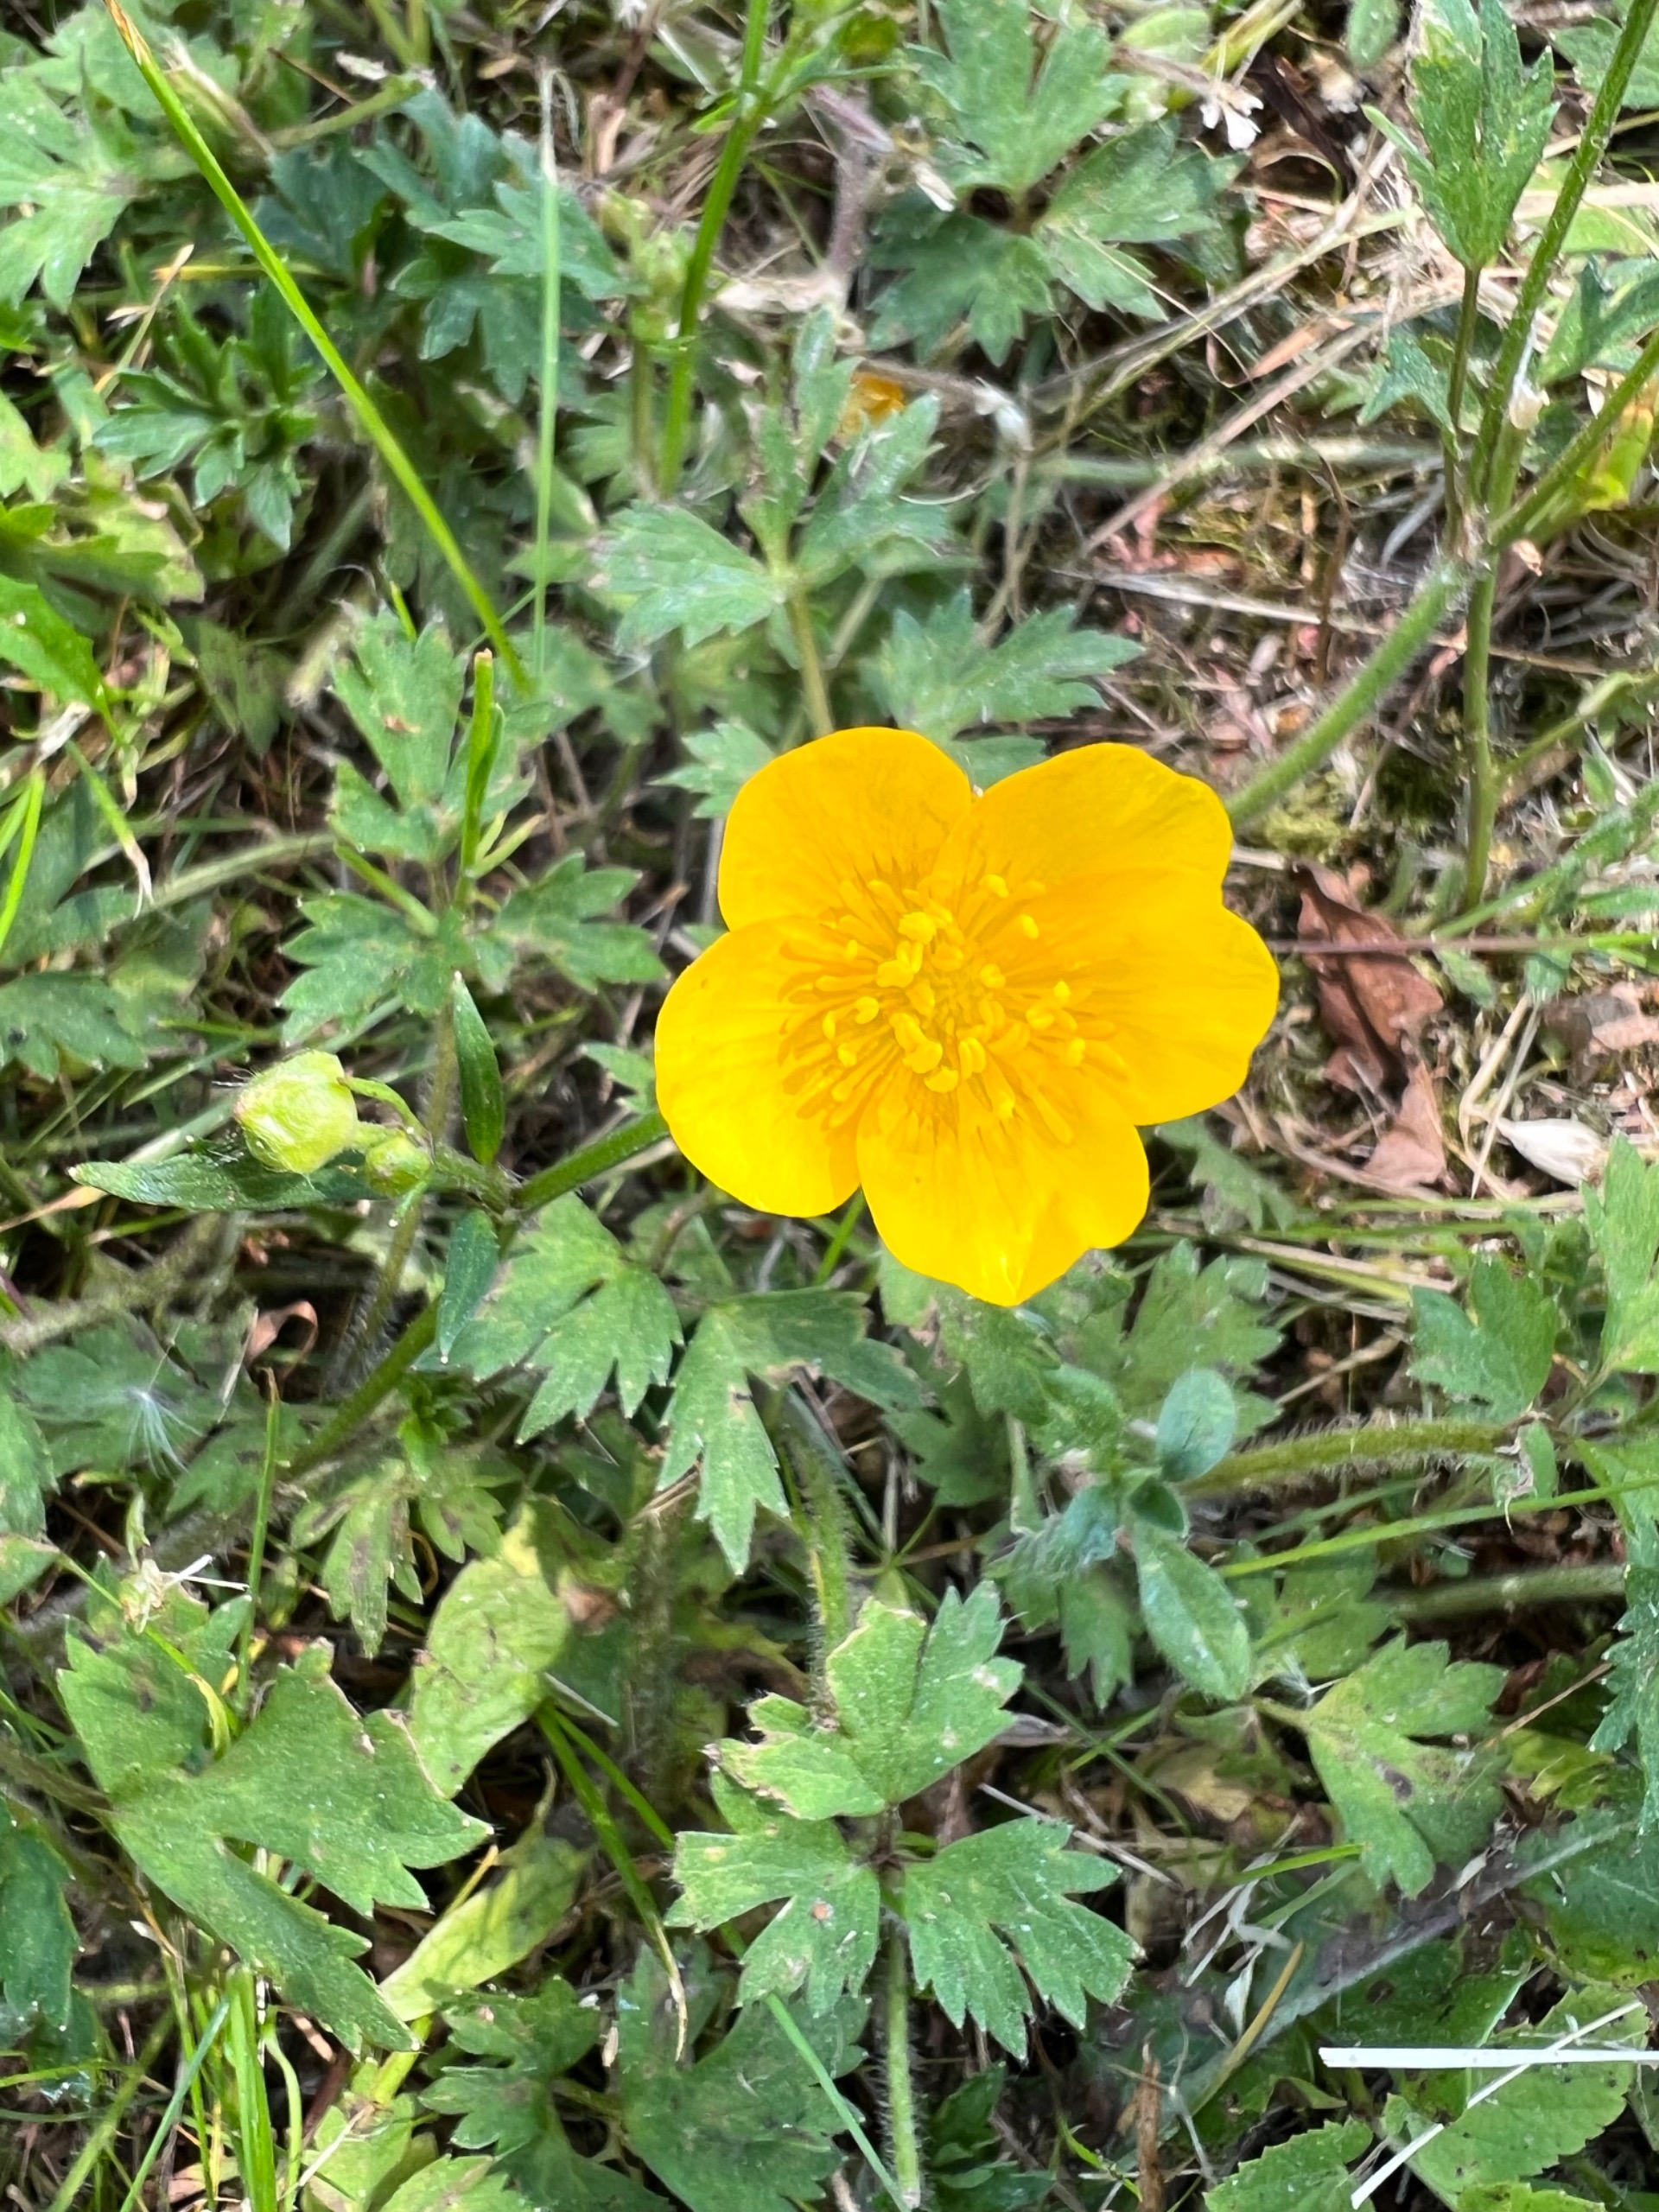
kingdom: Plantae
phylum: Tracheophyta
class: Magnoliopsida
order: Ranunculales
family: Ranunculaceae
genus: Ranunculus
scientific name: Ranunculus repens
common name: Lav ranunkel
